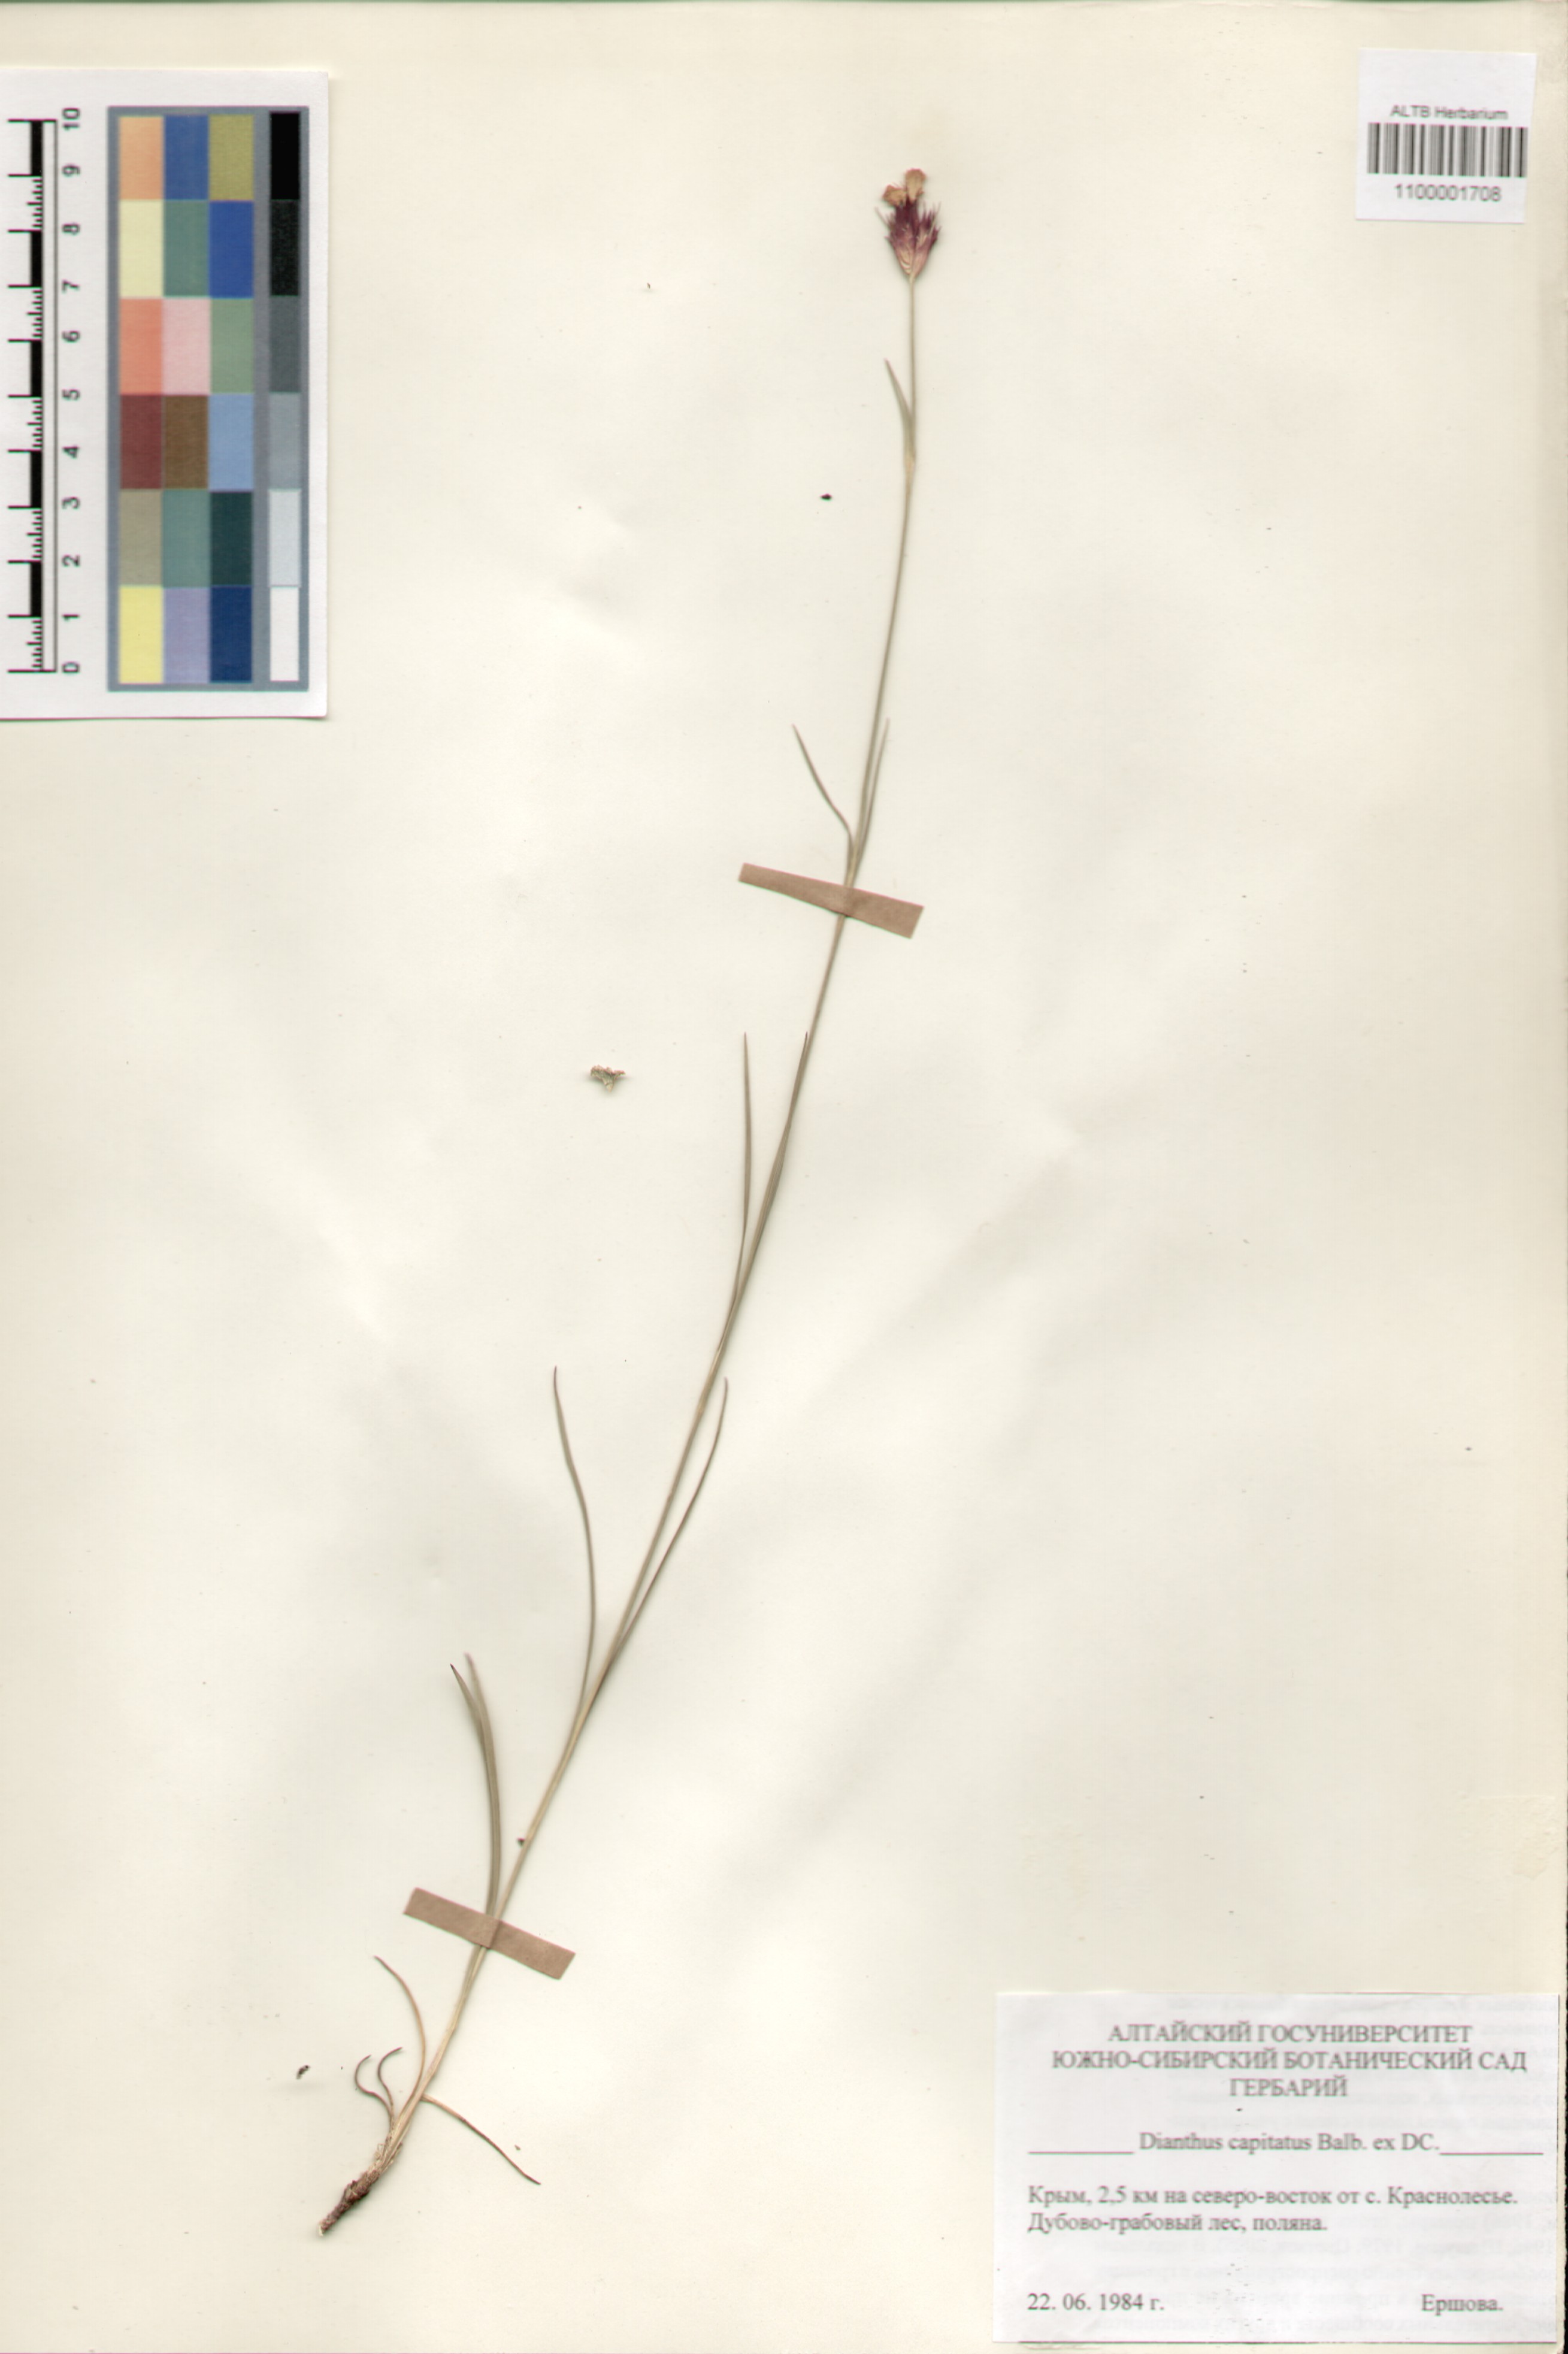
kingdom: Plantae
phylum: Tracheophyta
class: Magnoliopsida
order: Caryophyllales
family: Caryophyllaceae
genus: Dianthus
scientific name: Dianthus capitatus
